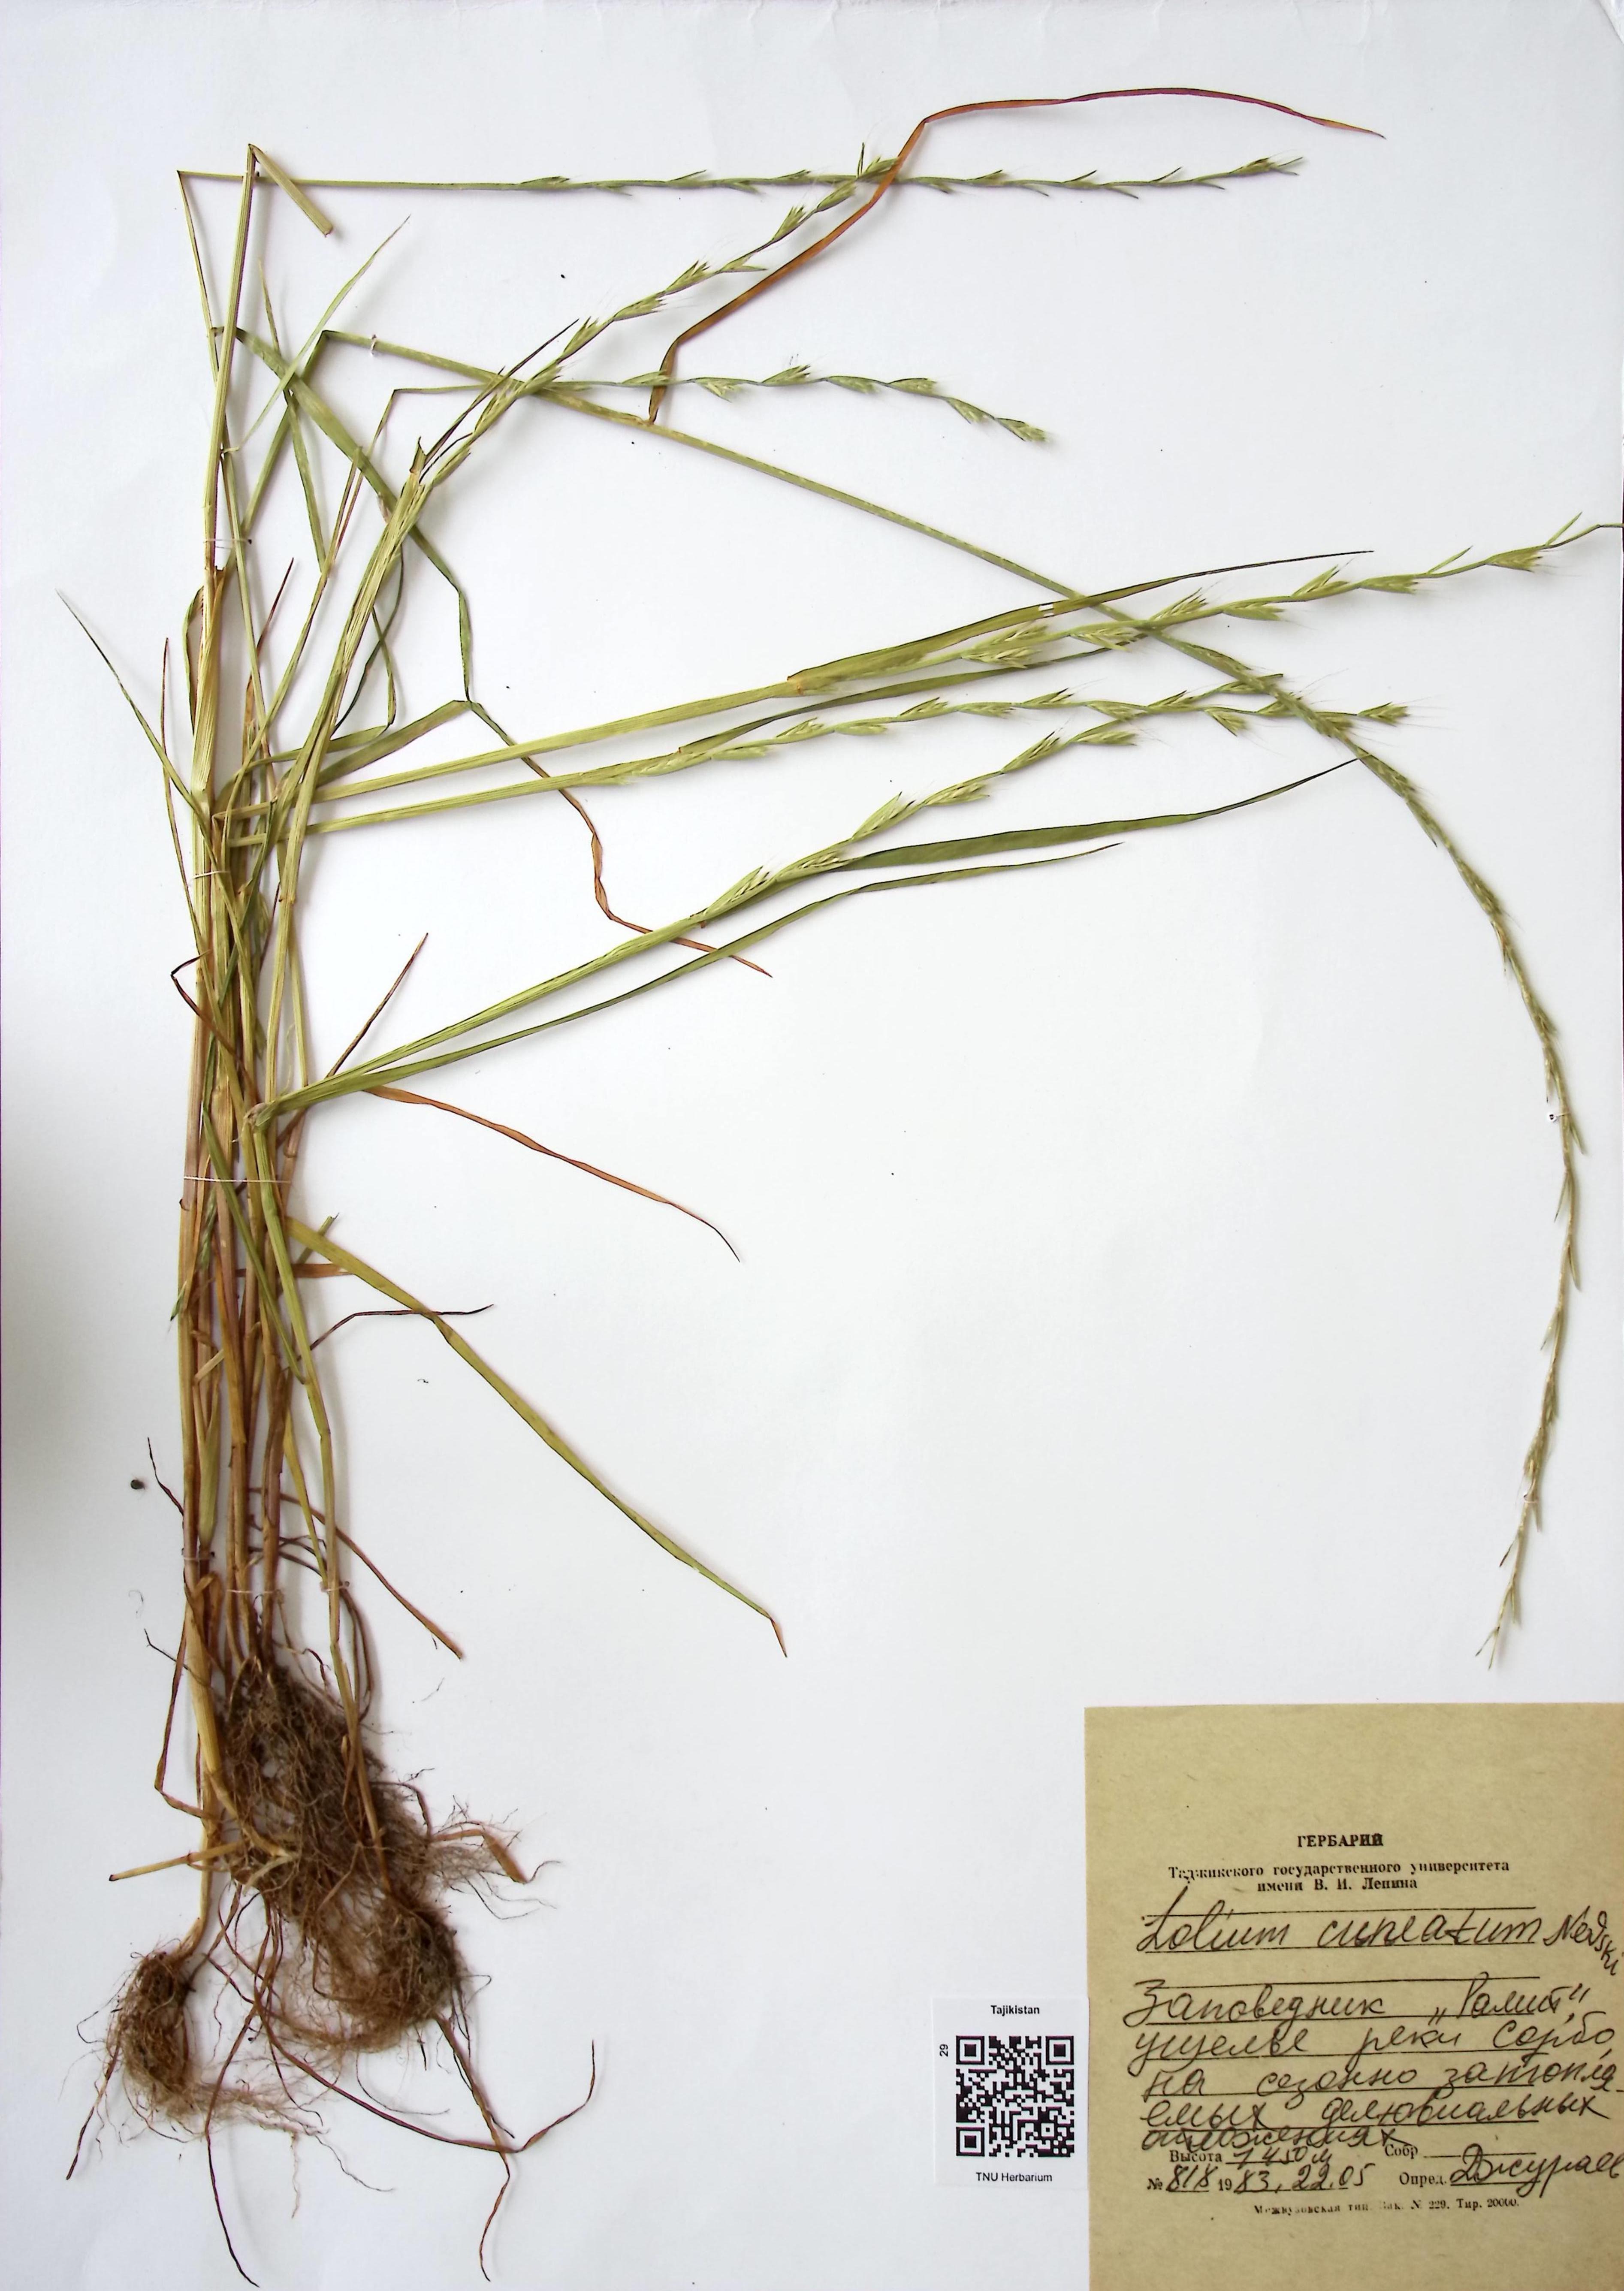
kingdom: Plantae
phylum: Tracheophyta
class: Liliopsida
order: Poales
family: Poaceae
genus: Lolium
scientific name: Lolium temulentum
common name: Darnel
